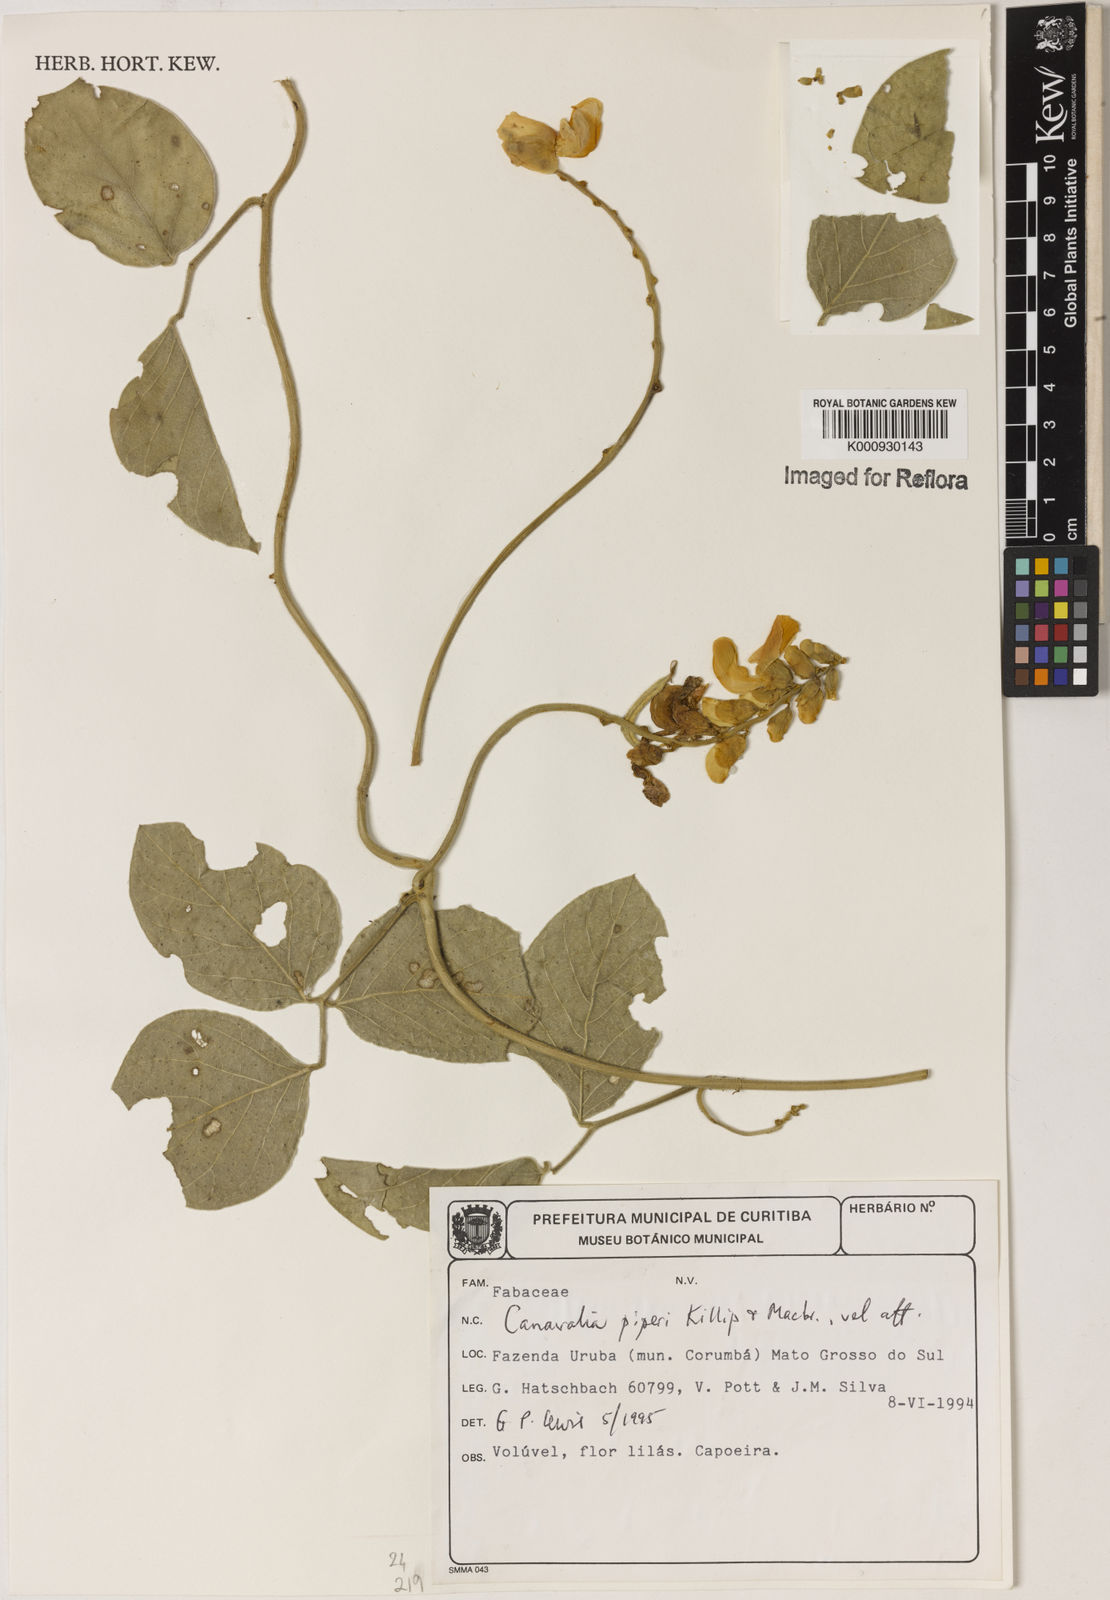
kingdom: Plantae
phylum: Tracheophyta
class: Magnoliopsida
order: Fabales
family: Fabaceae
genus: Canavalia
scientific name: Canavalia piperi
